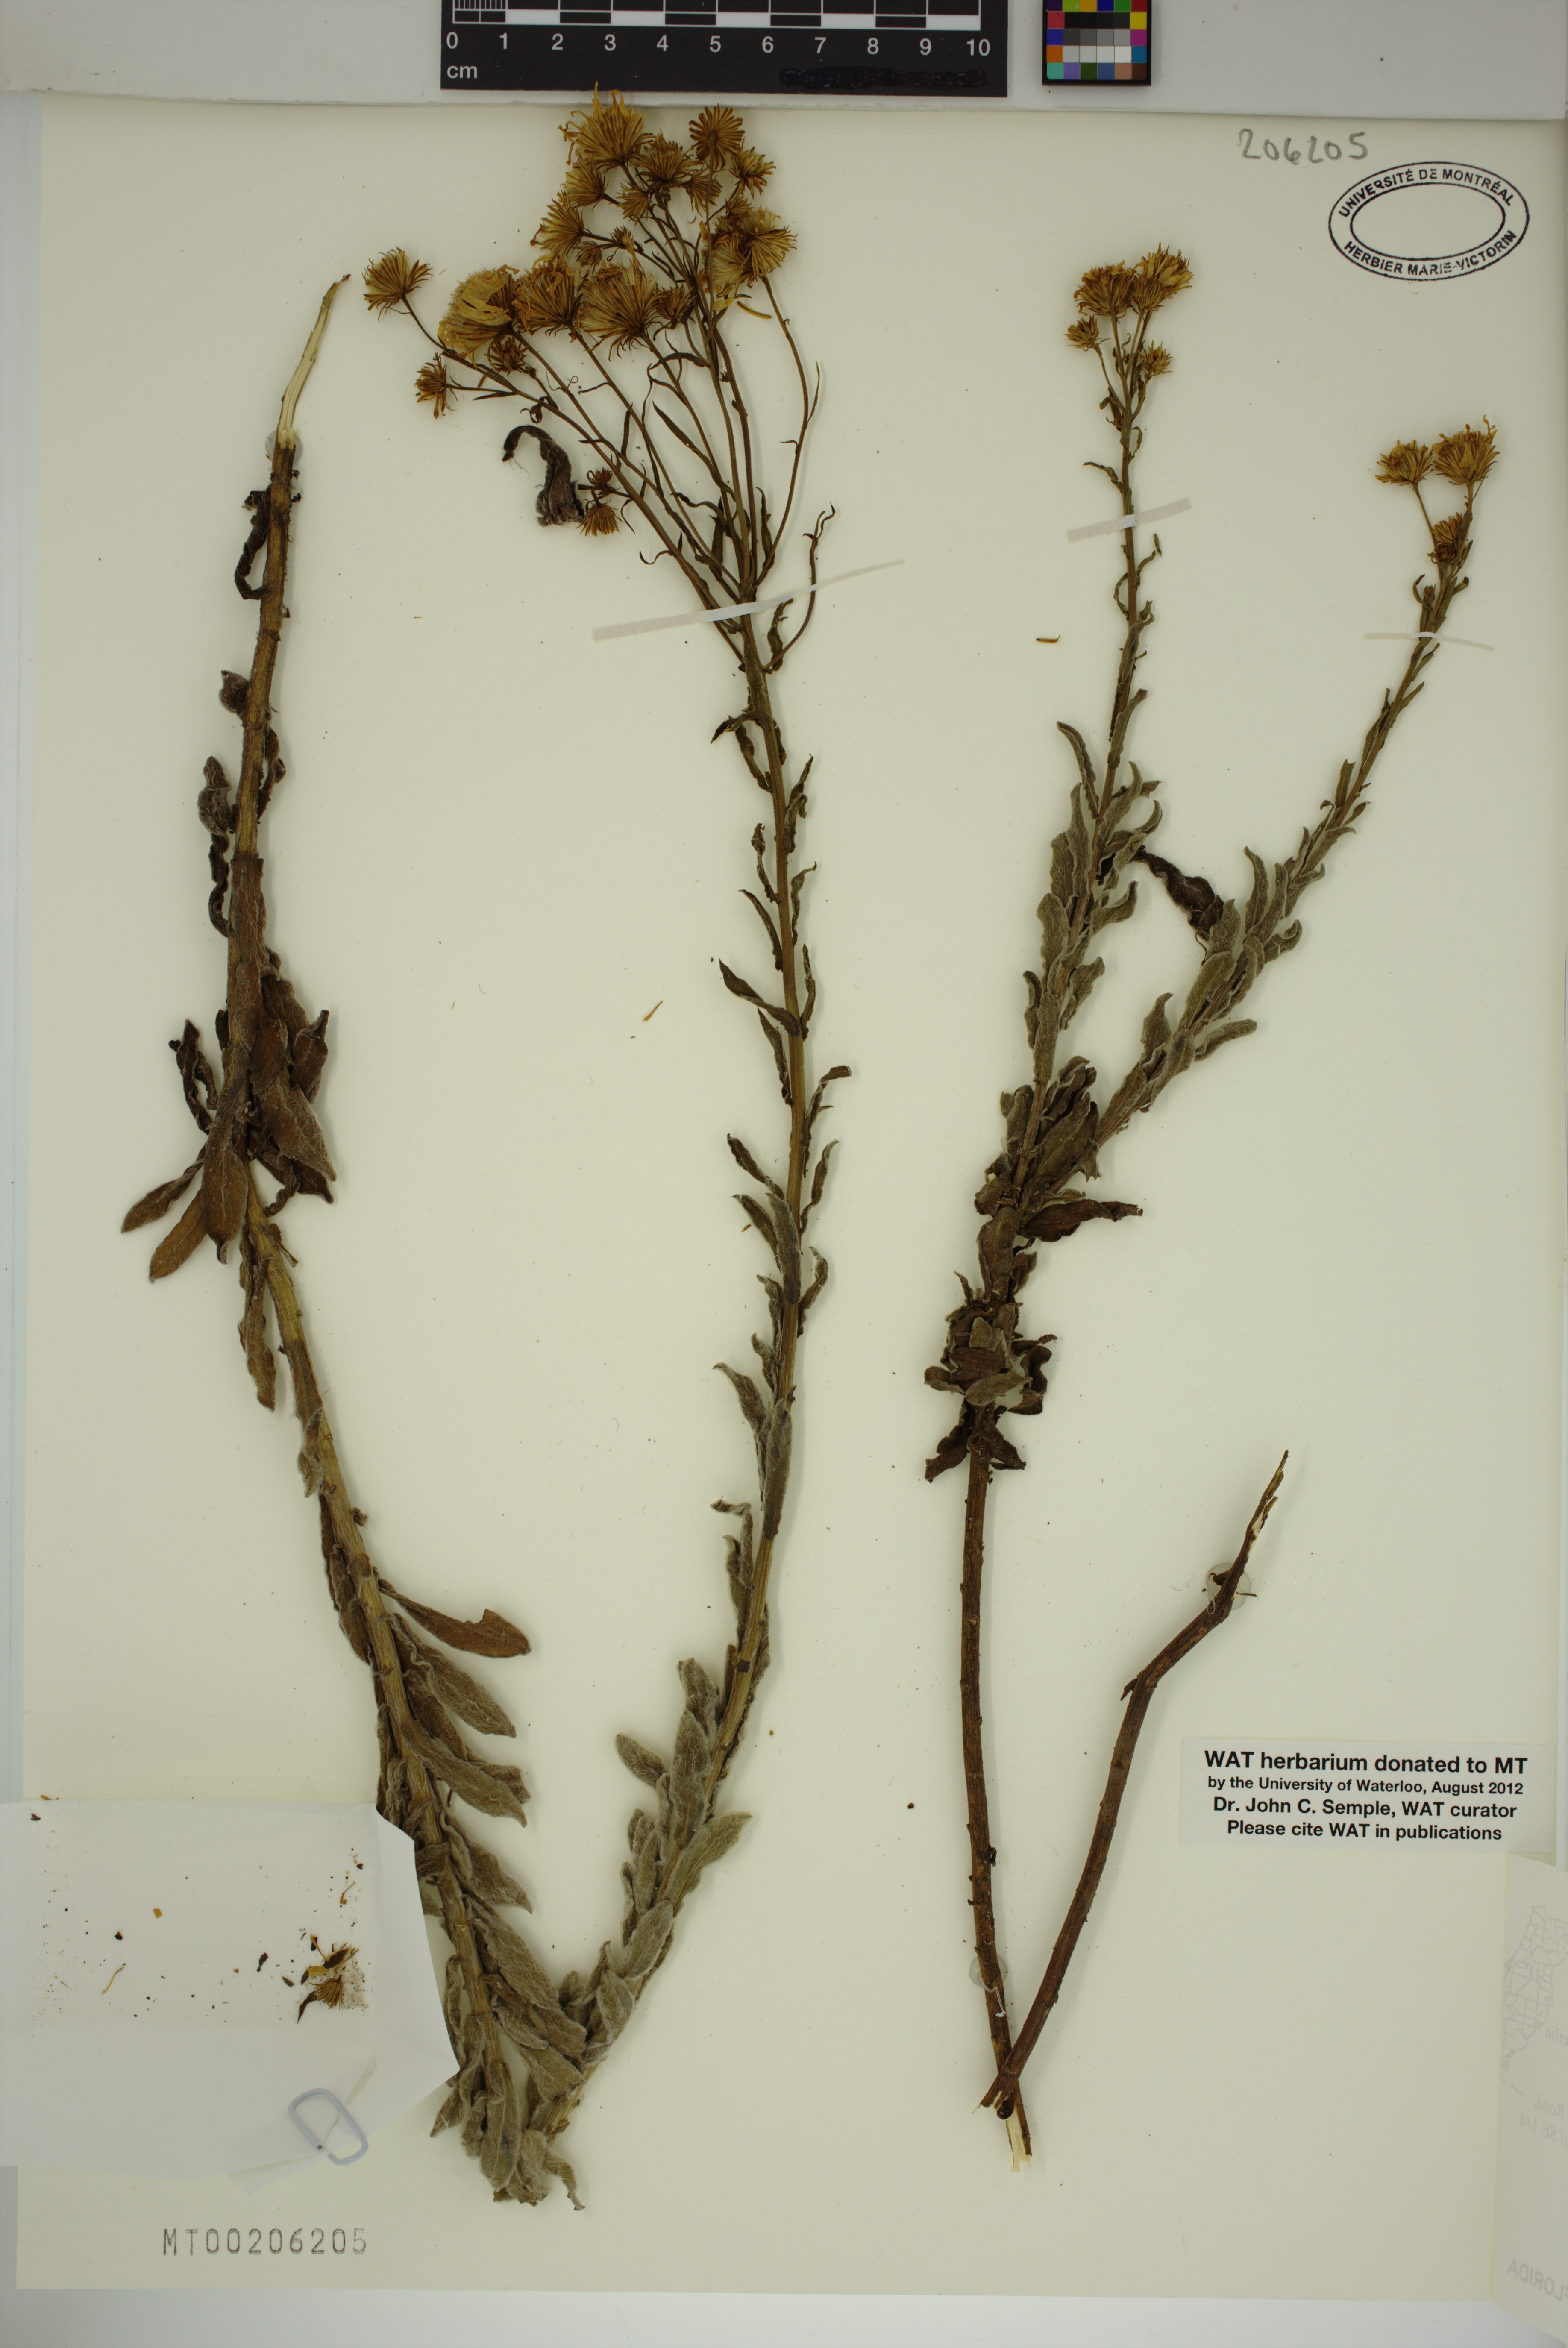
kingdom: Plantae
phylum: Tracheophyta
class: Magnoliopsida
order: Asterales
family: Asteraceae
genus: Chrysopsis
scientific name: Chrysopsis floridana
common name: Florida golden-aster
